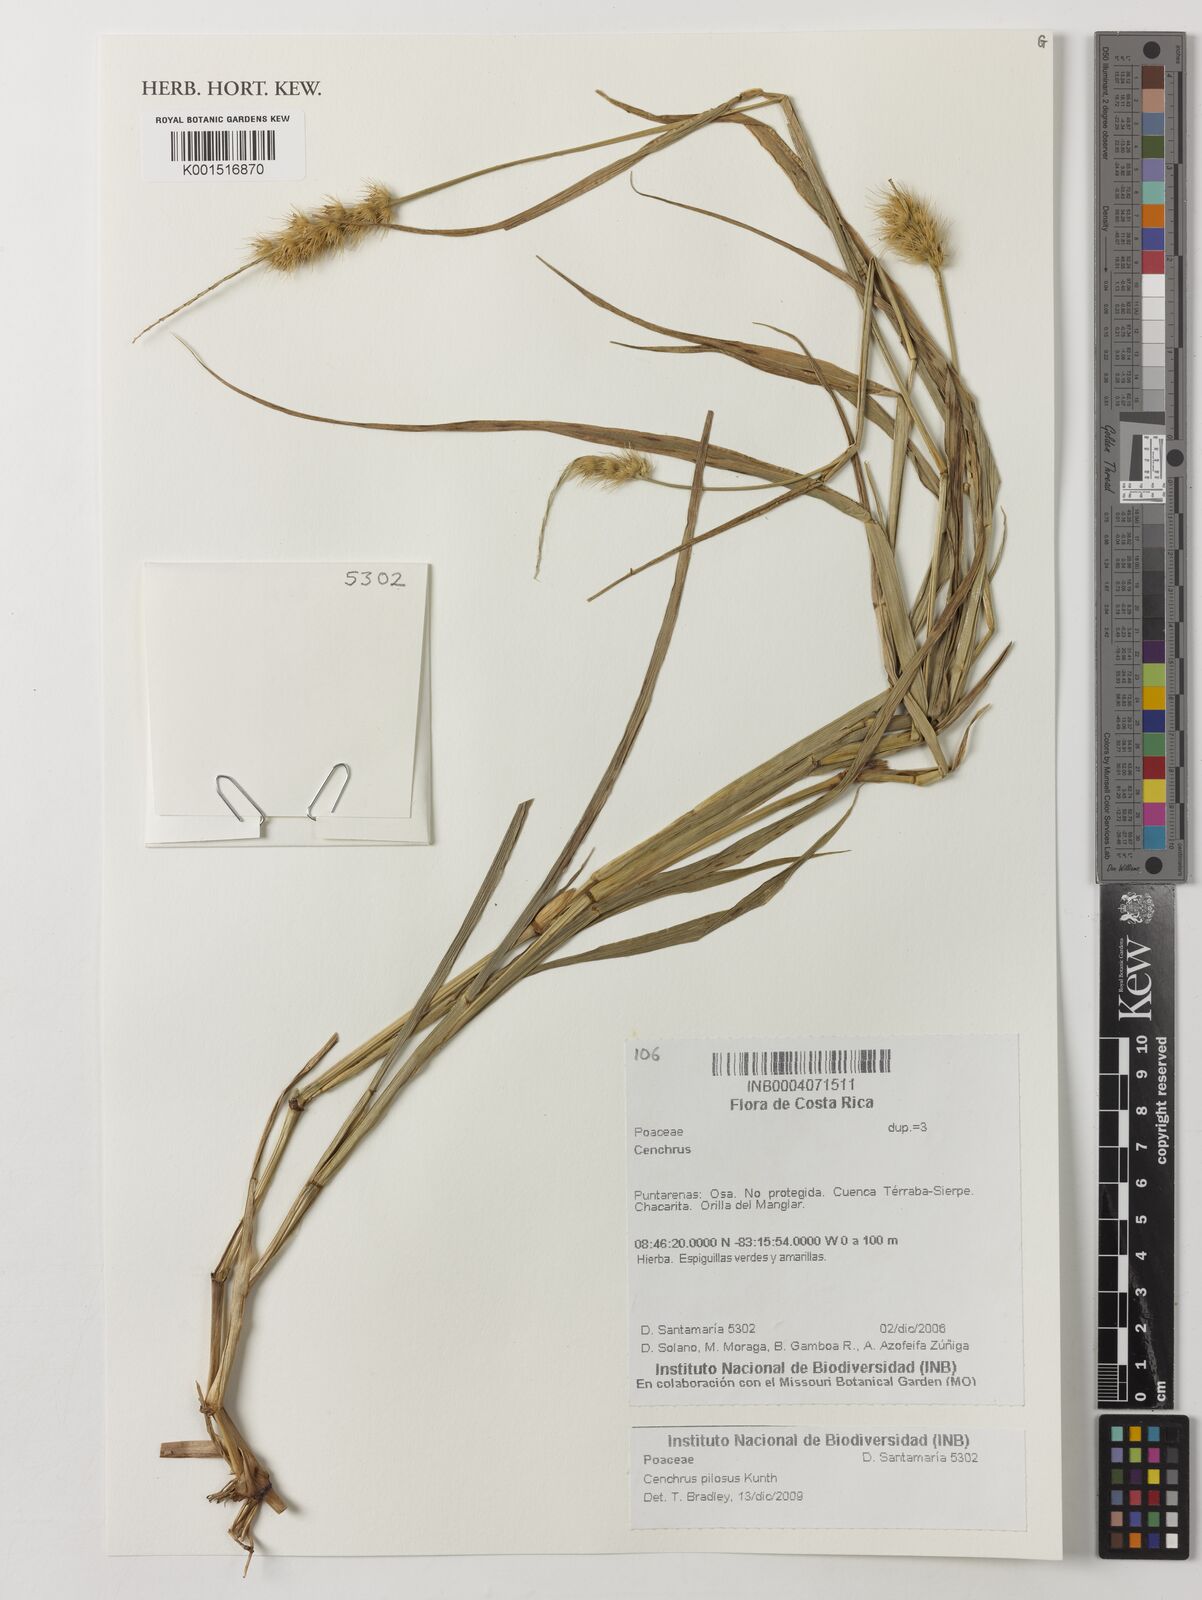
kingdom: Plantae
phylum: Tracheophyta
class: Liliopsida
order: Poales
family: Poaceae
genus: Cenchrus
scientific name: Cenchrus pilosus
